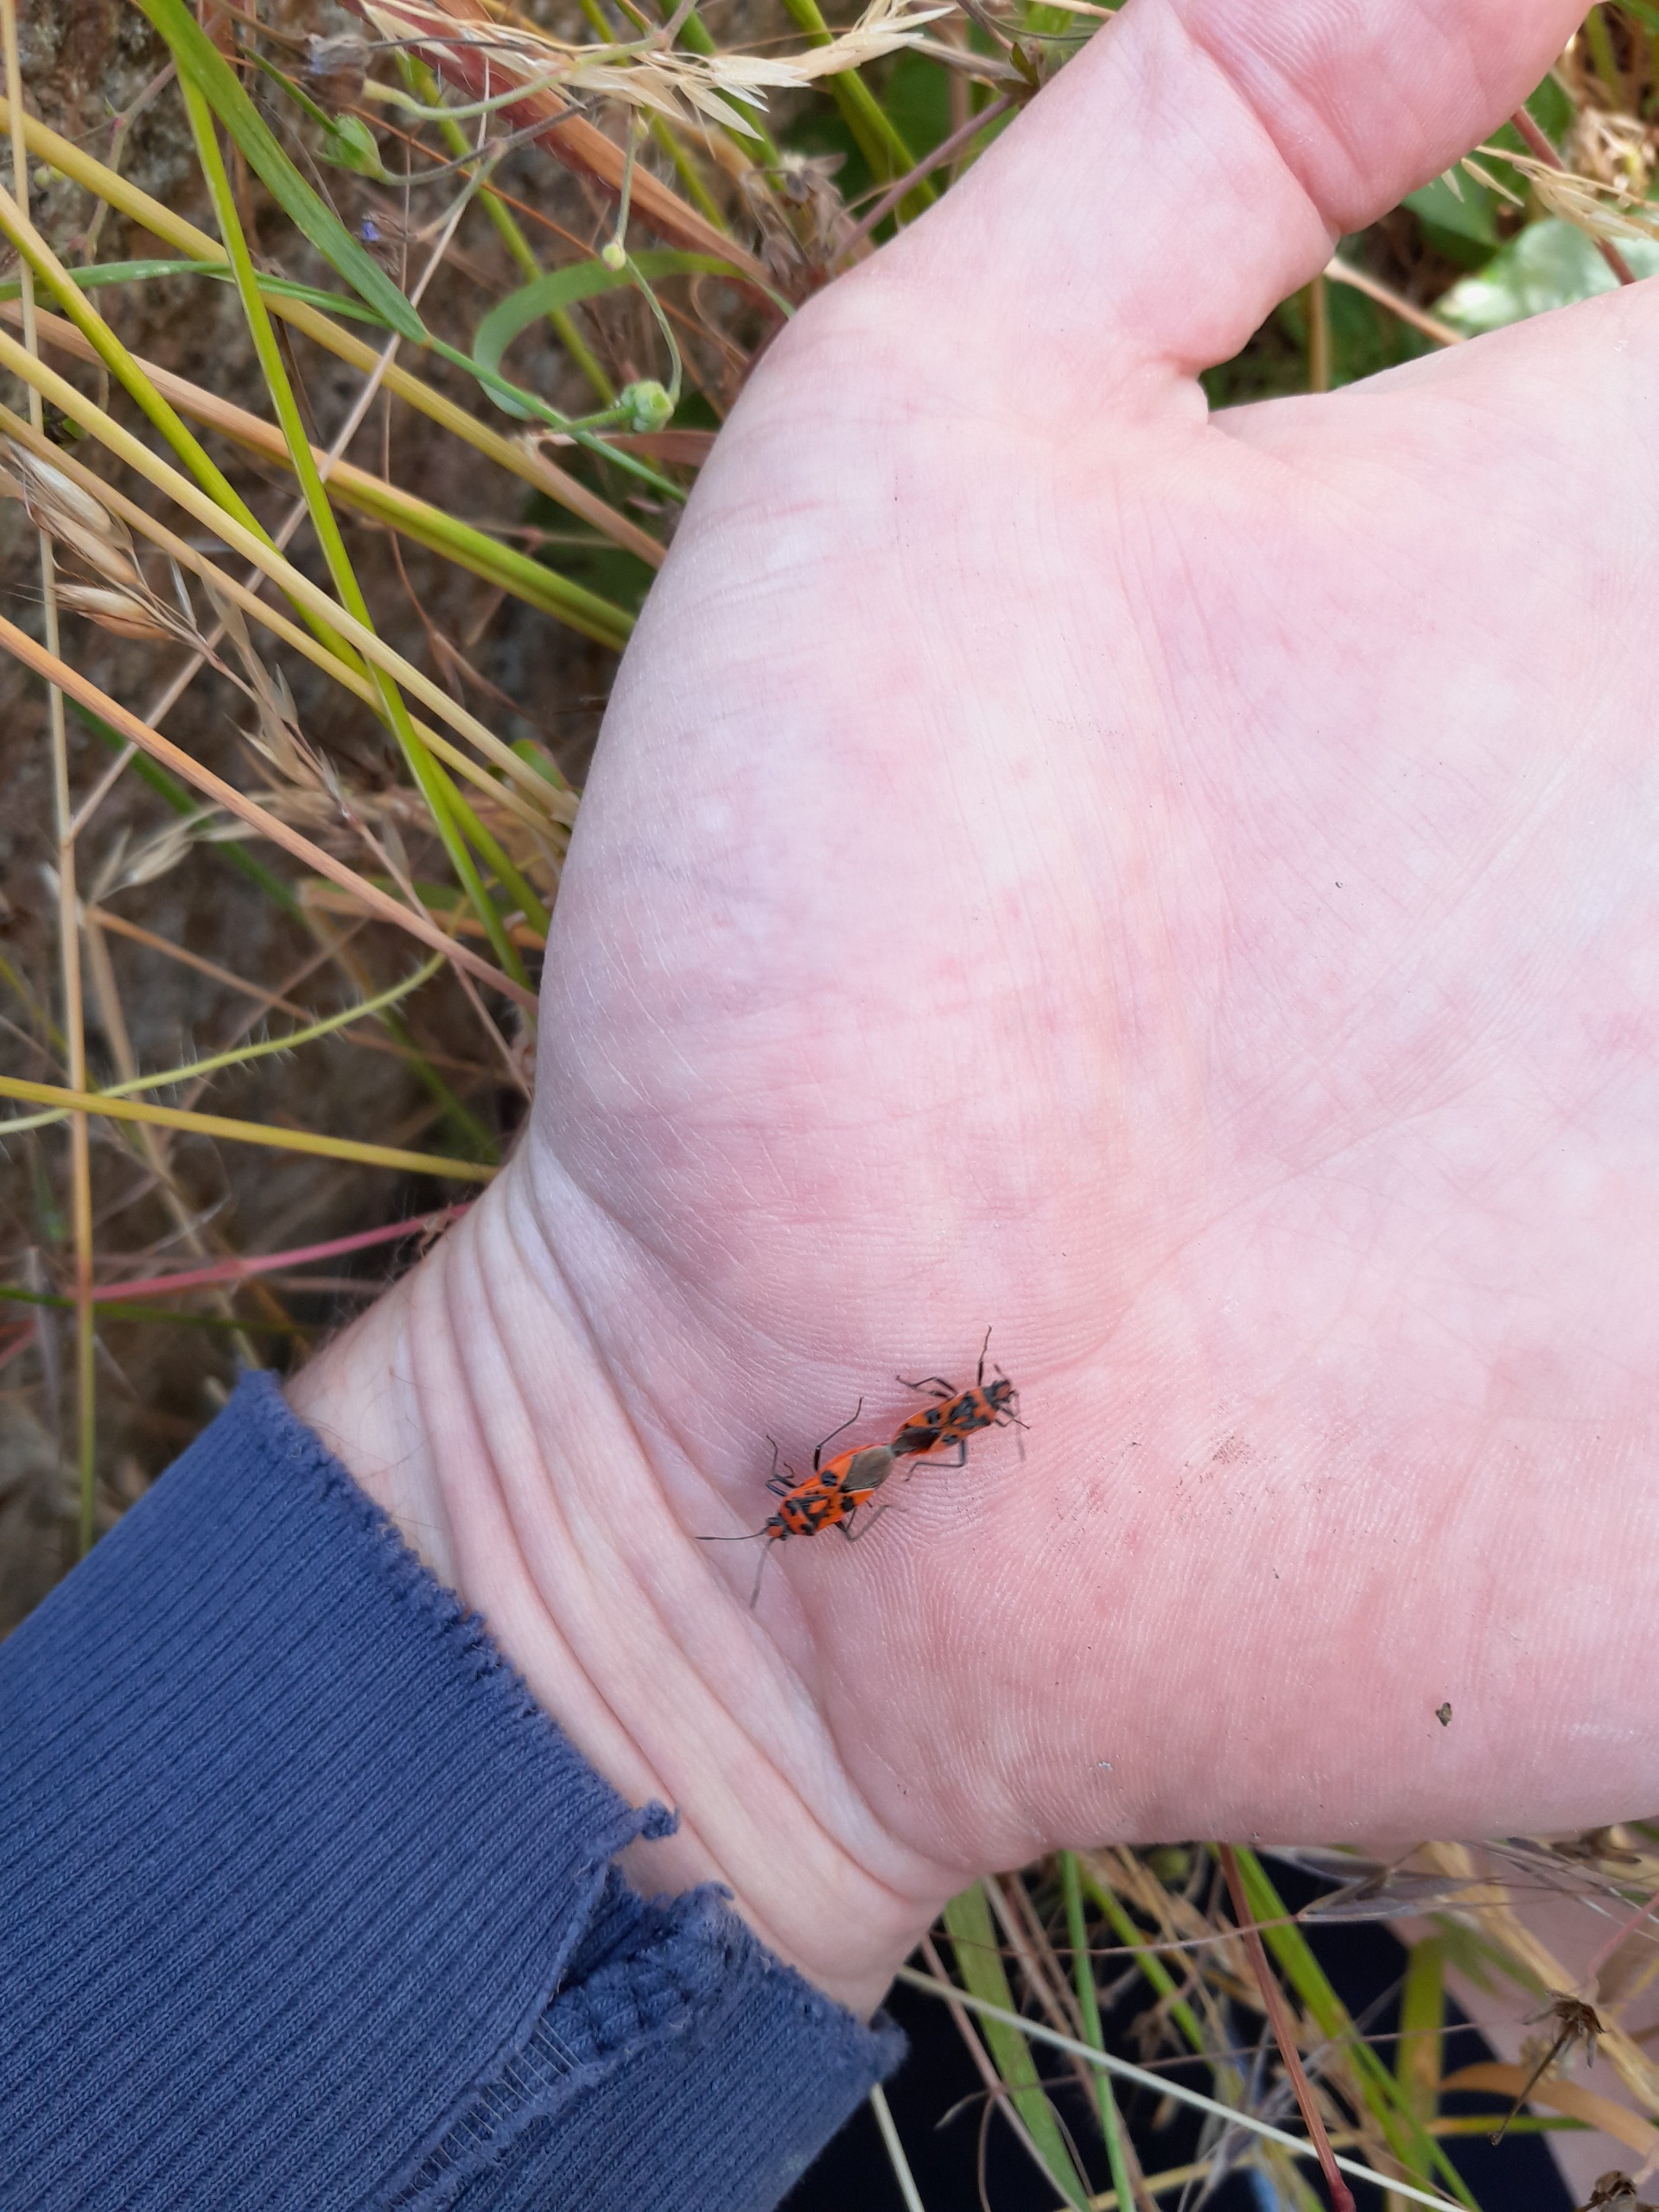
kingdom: Animalia
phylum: Arthropoda
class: Insecta
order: Hemiptera
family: Rhopalidae
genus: Corizus
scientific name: Corizus hyoscyami
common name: Rød kanttæge
